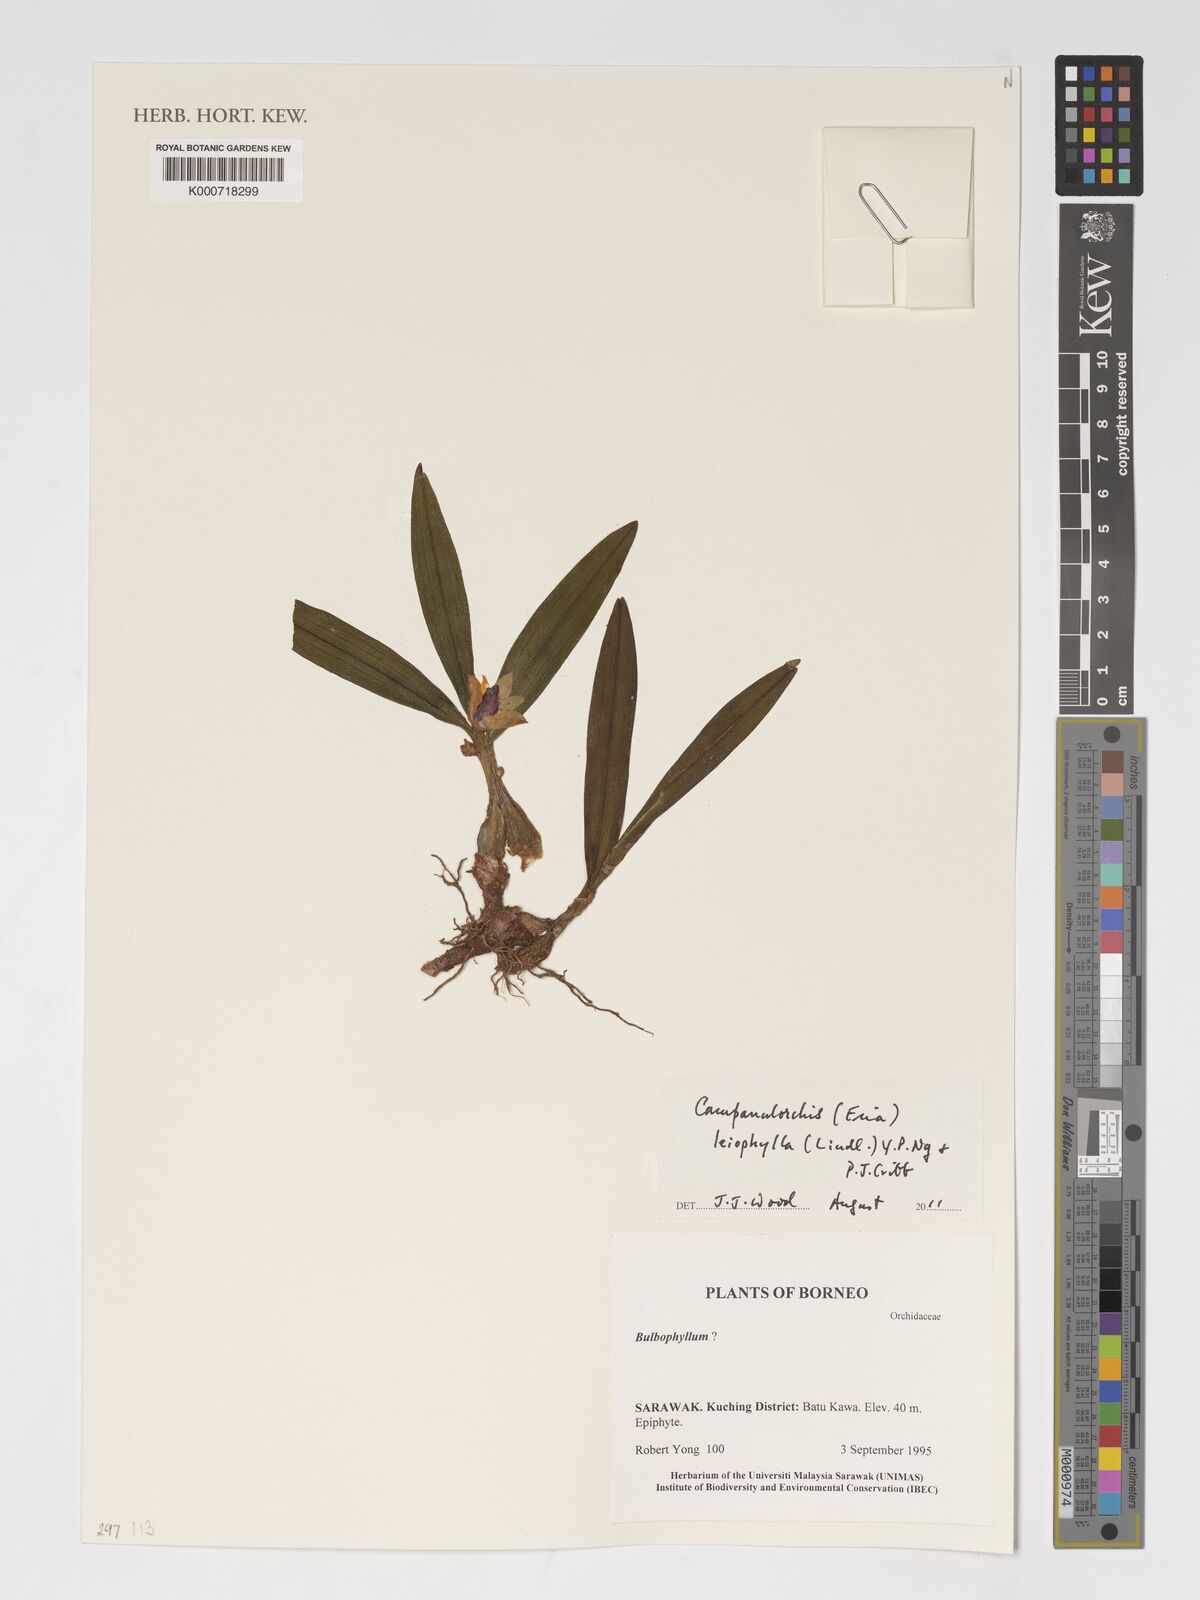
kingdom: Plantae
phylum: Tracheophyta
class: Liliopsida
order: Asparagales
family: Orchidaceae
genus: Strongyleria
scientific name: Strongyleria leiophylla
